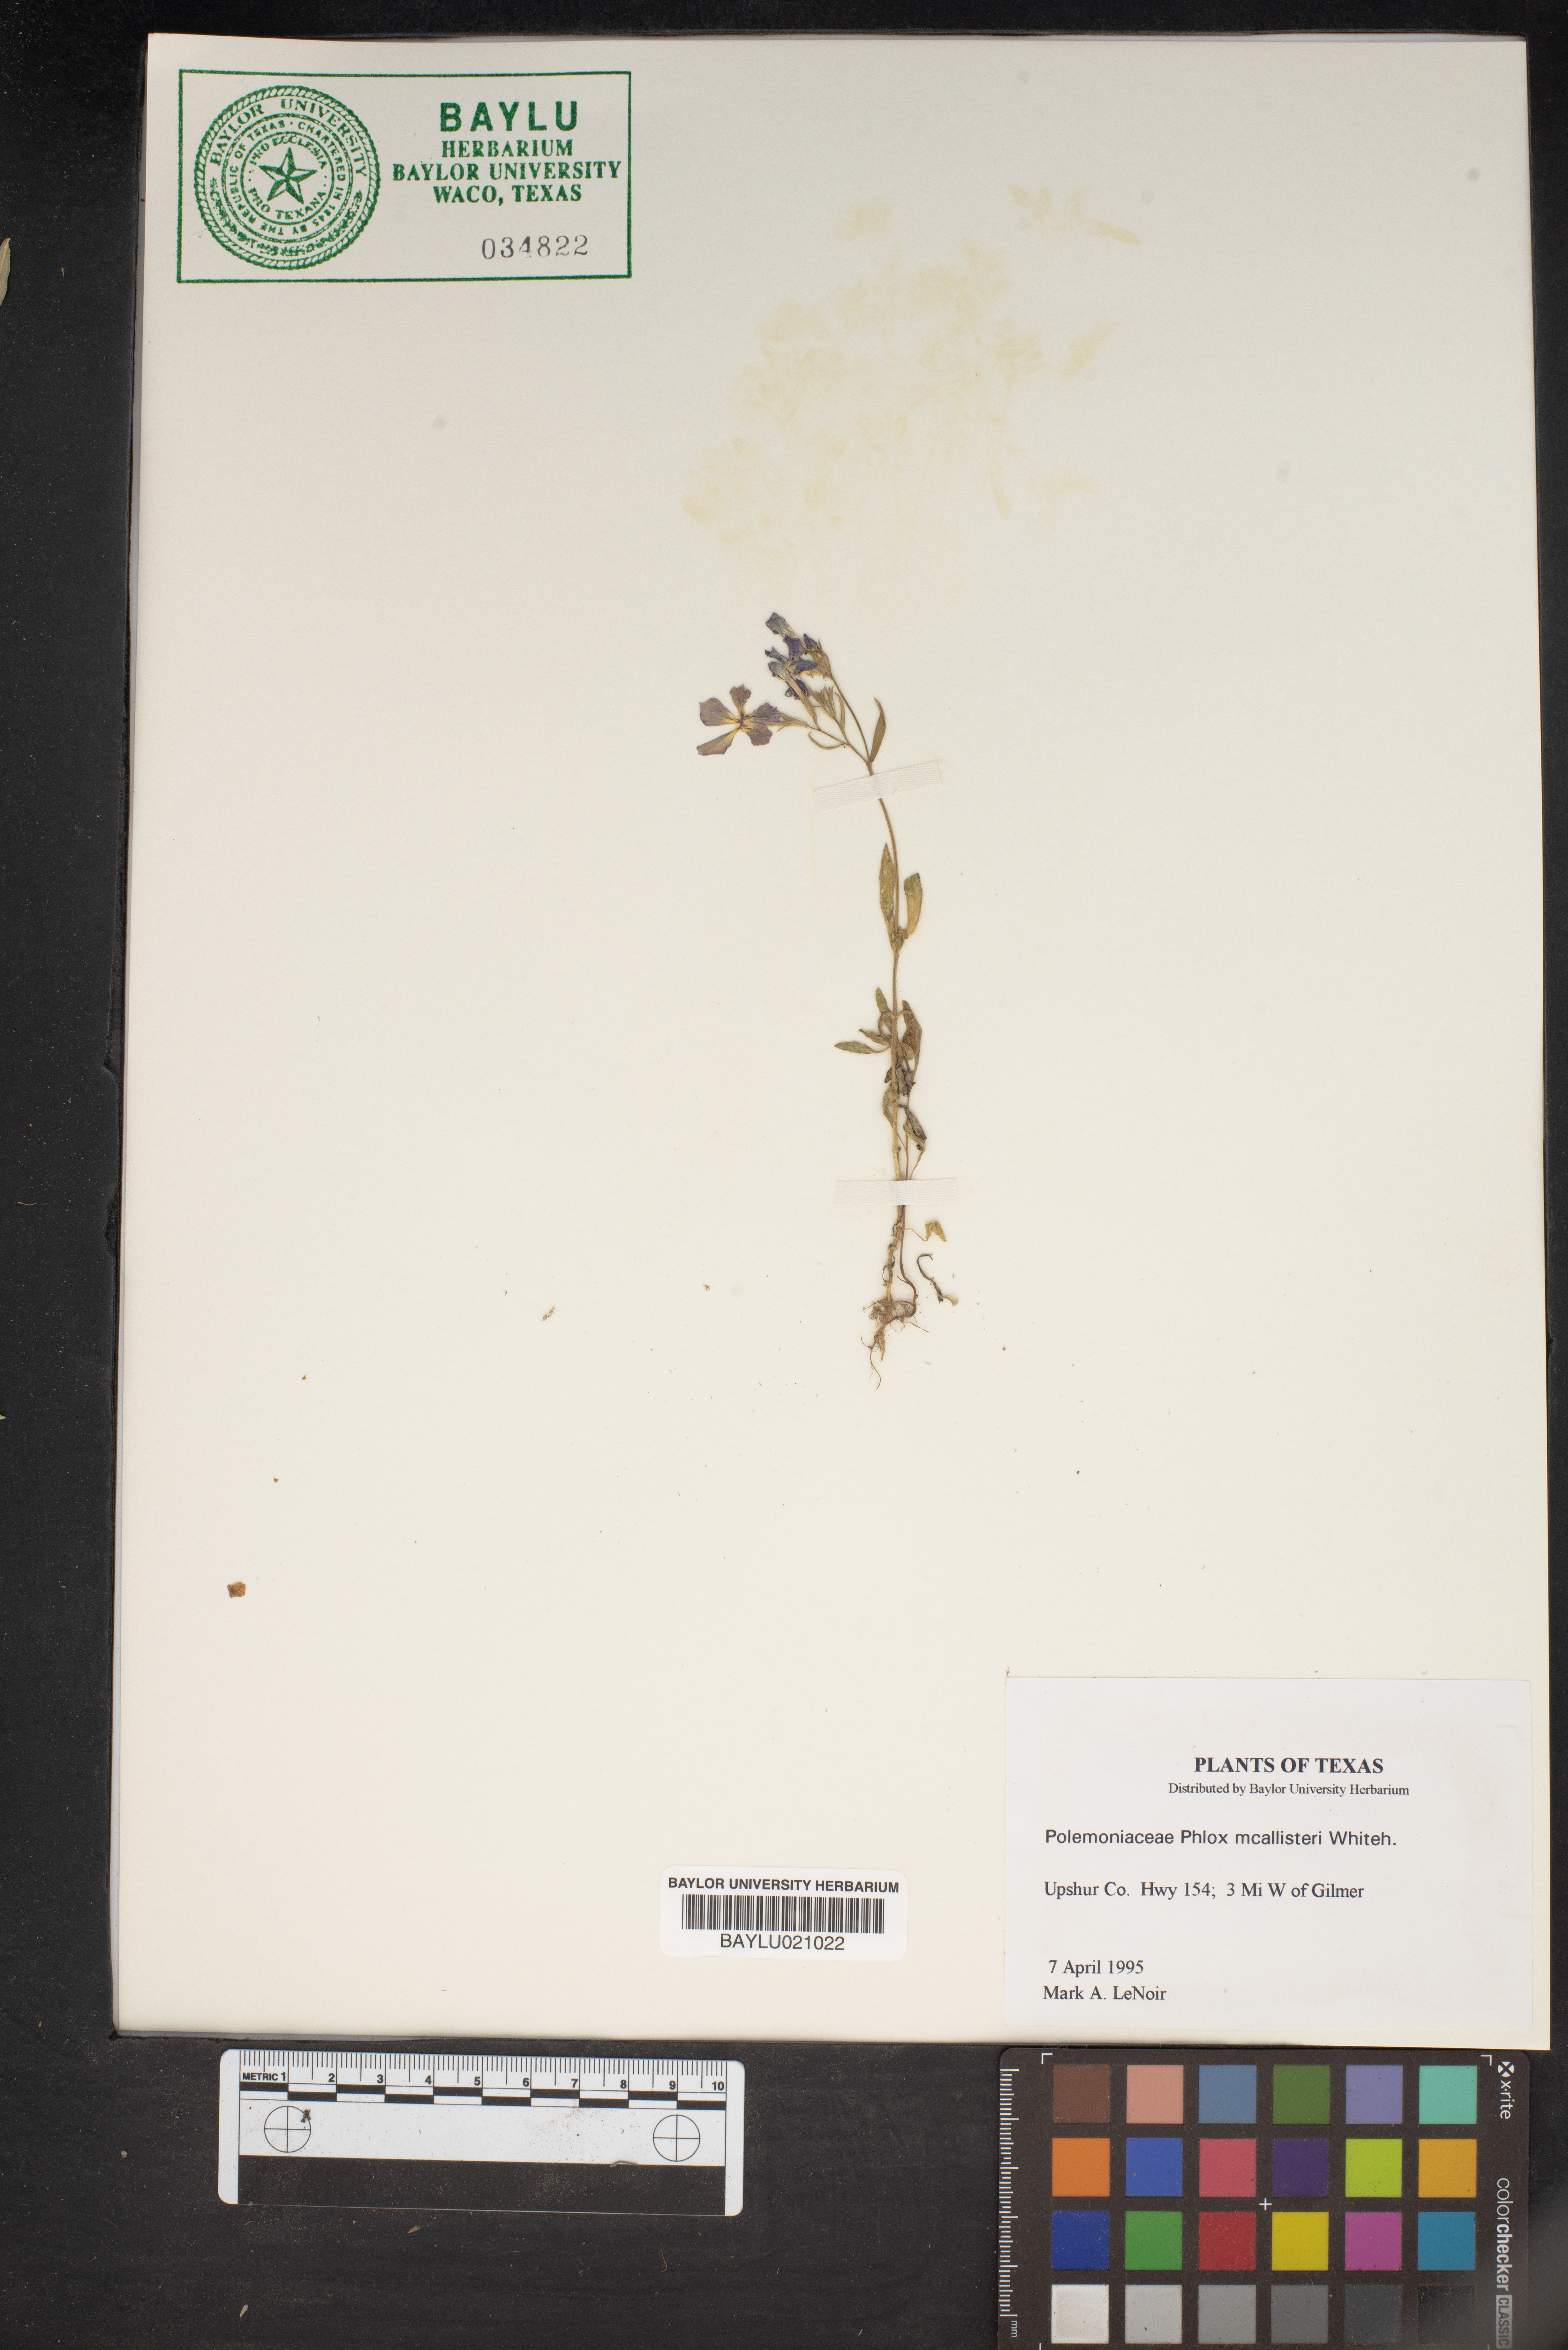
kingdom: Plantae
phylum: Tracheophyta
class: Magnoliopsida
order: Ericales
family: Polemoniaceae
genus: Phlox
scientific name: Phlox drummondii
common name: Drummond's phlox
